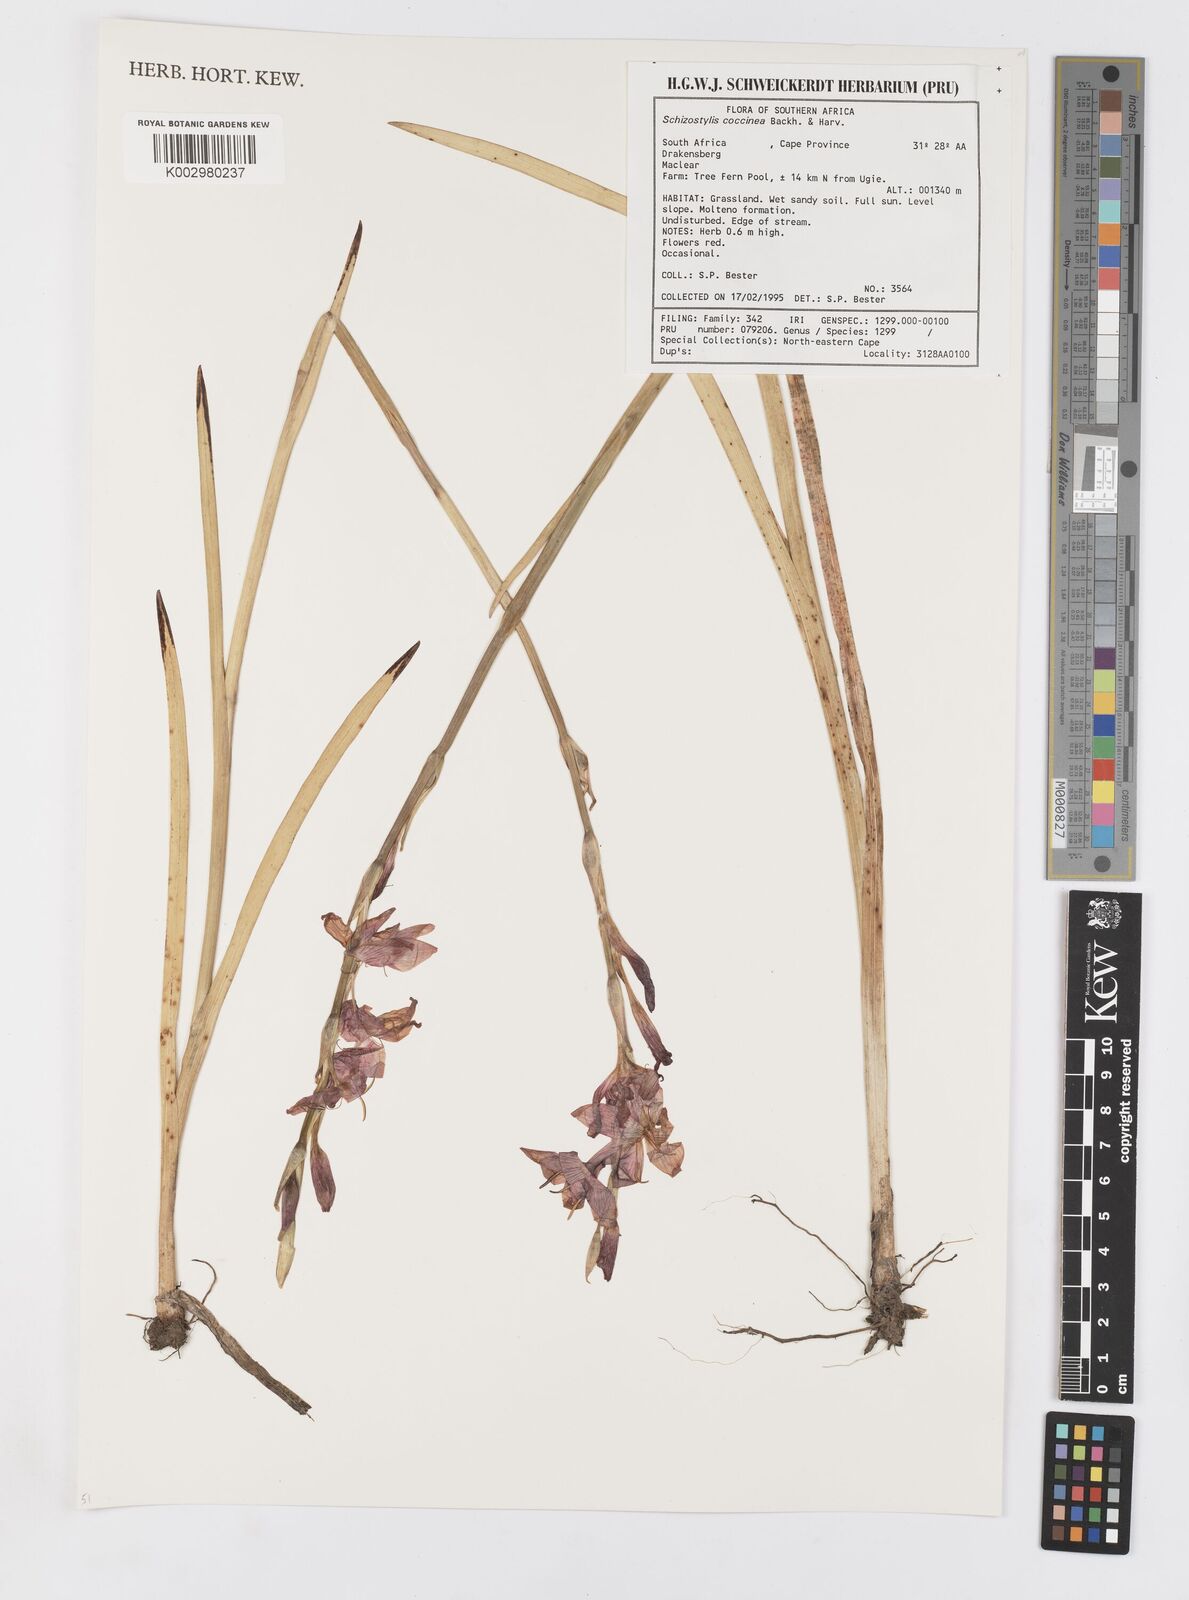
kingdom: Plantae
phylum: Tracheophyta
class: Liliopsida
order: Asparagales
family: Iridaceae
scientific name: Iridaceae
